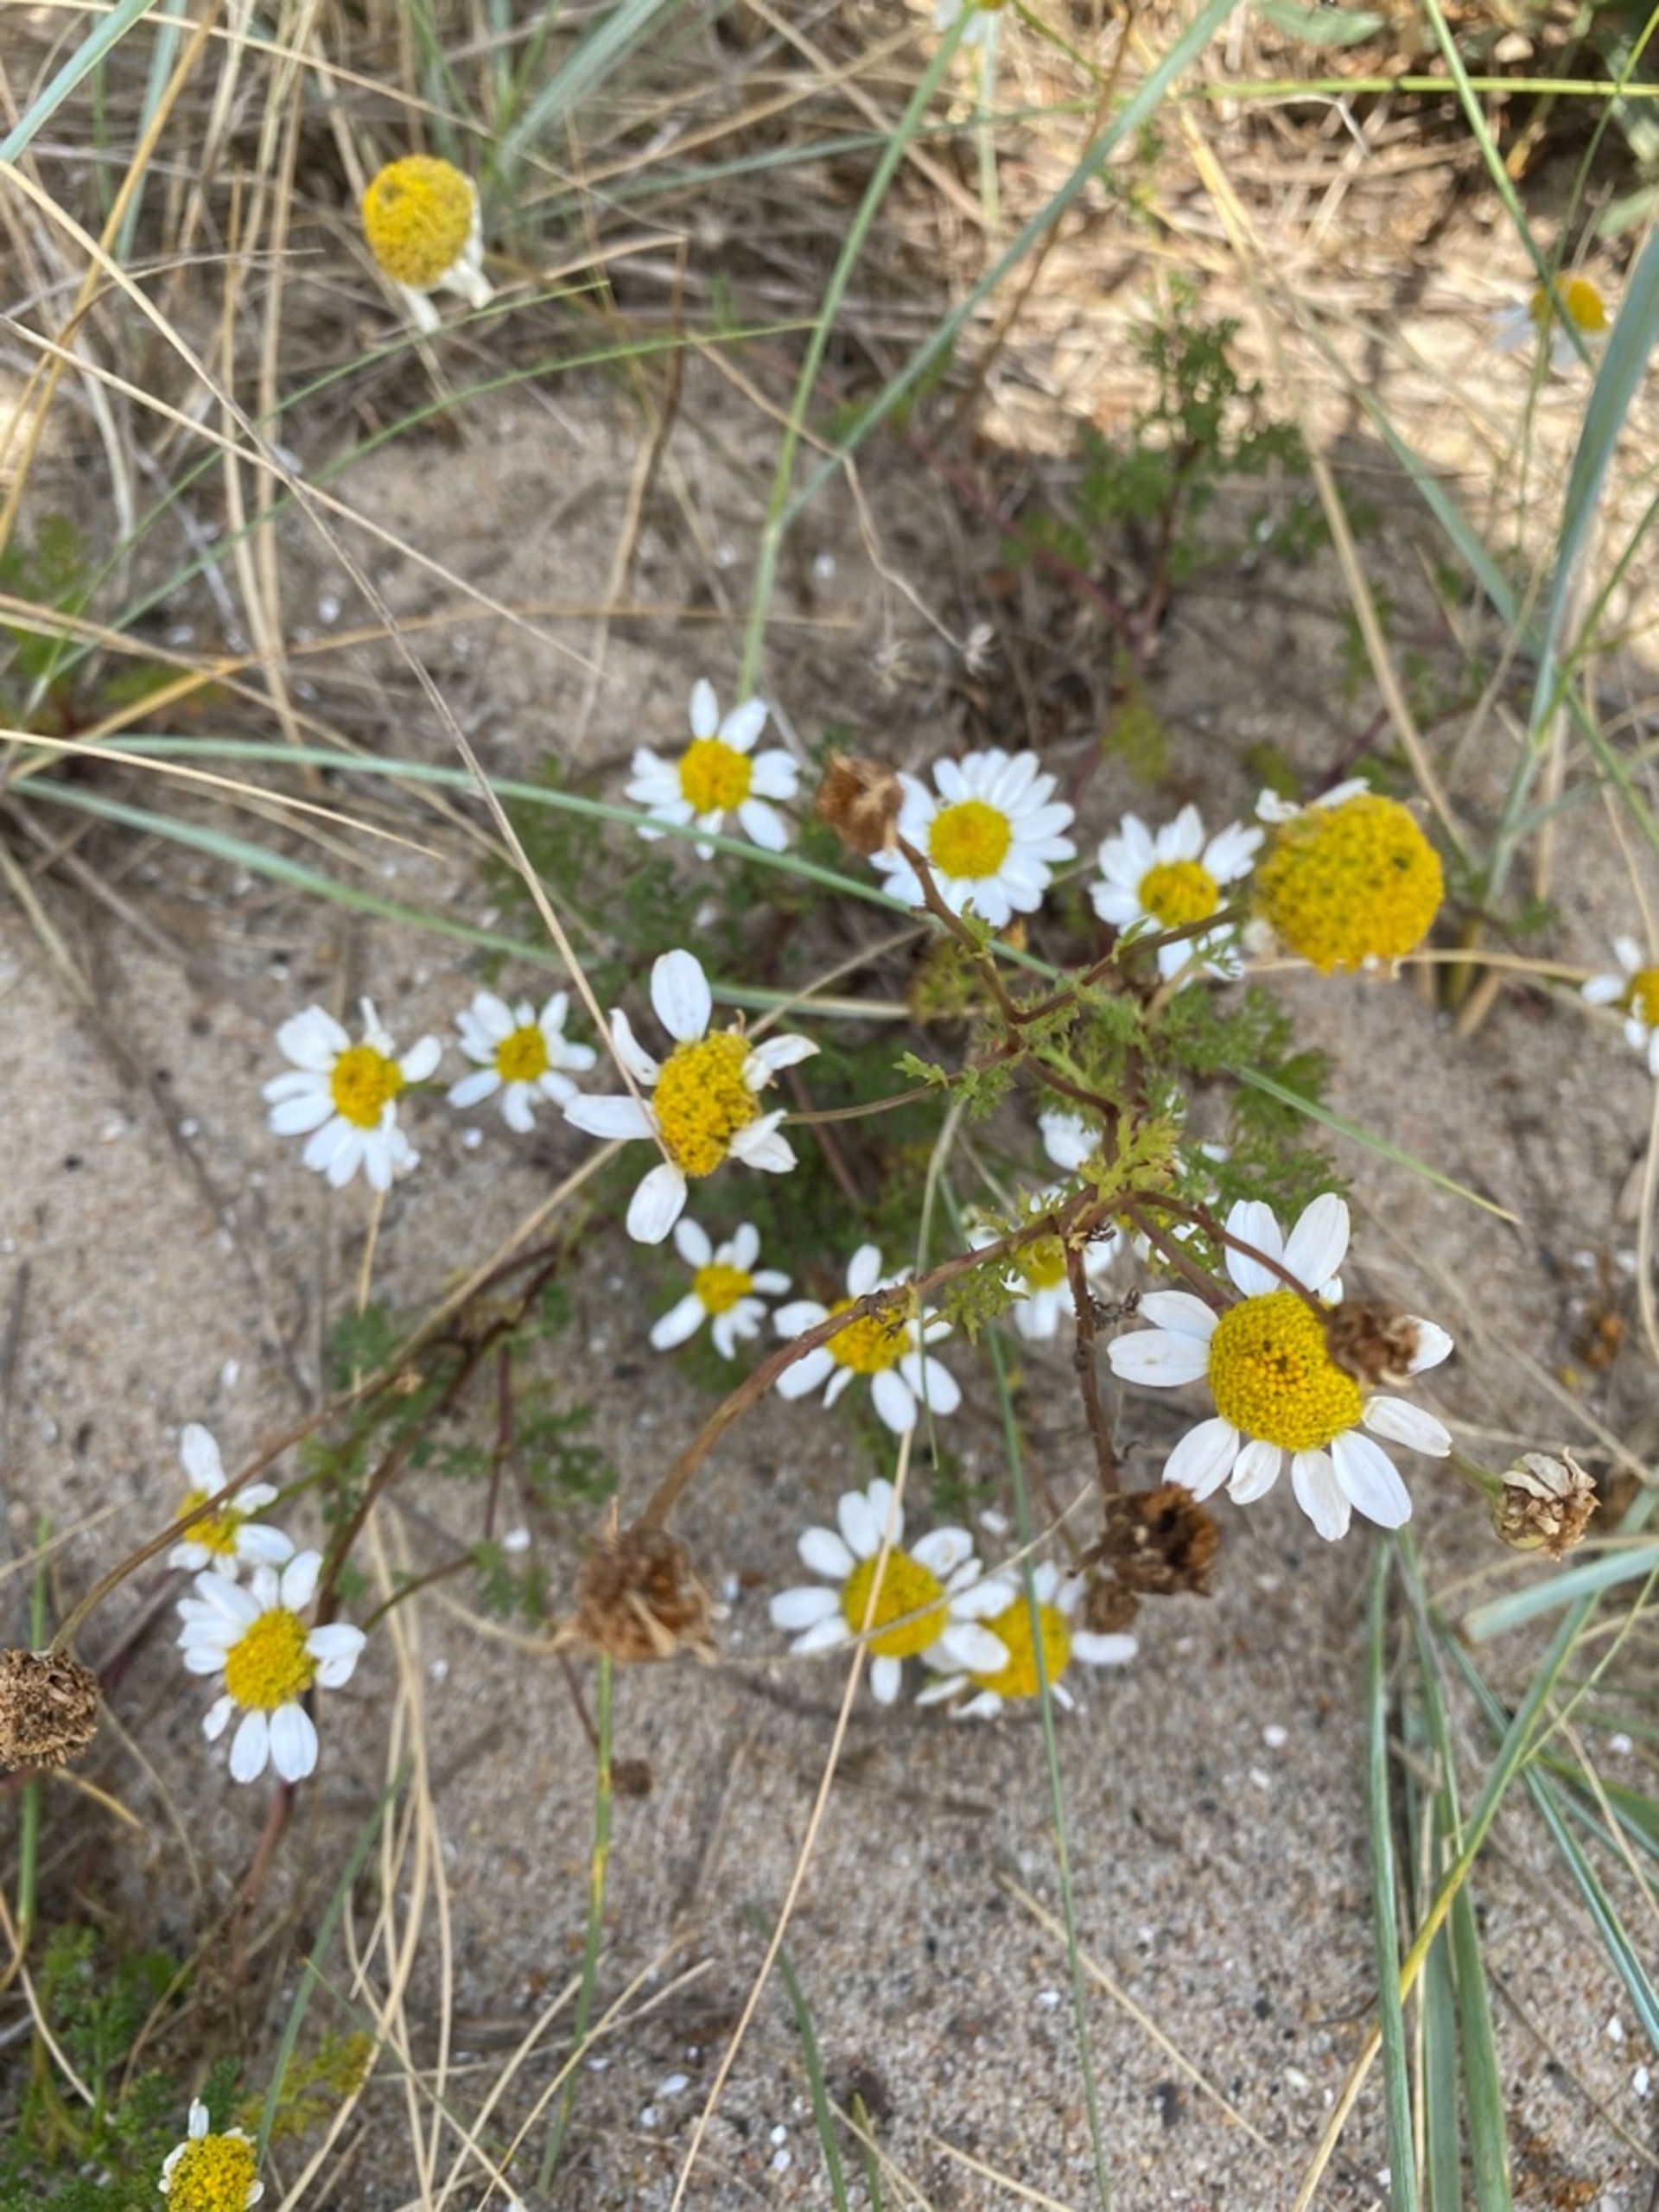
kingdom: Plantae
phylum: Tracheophyta
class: Magnoliopsida
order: Asterales
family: Asteraceae
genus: Tripleurospermum
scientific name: Tripleurospermum maritimum
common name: Strand-kamille
